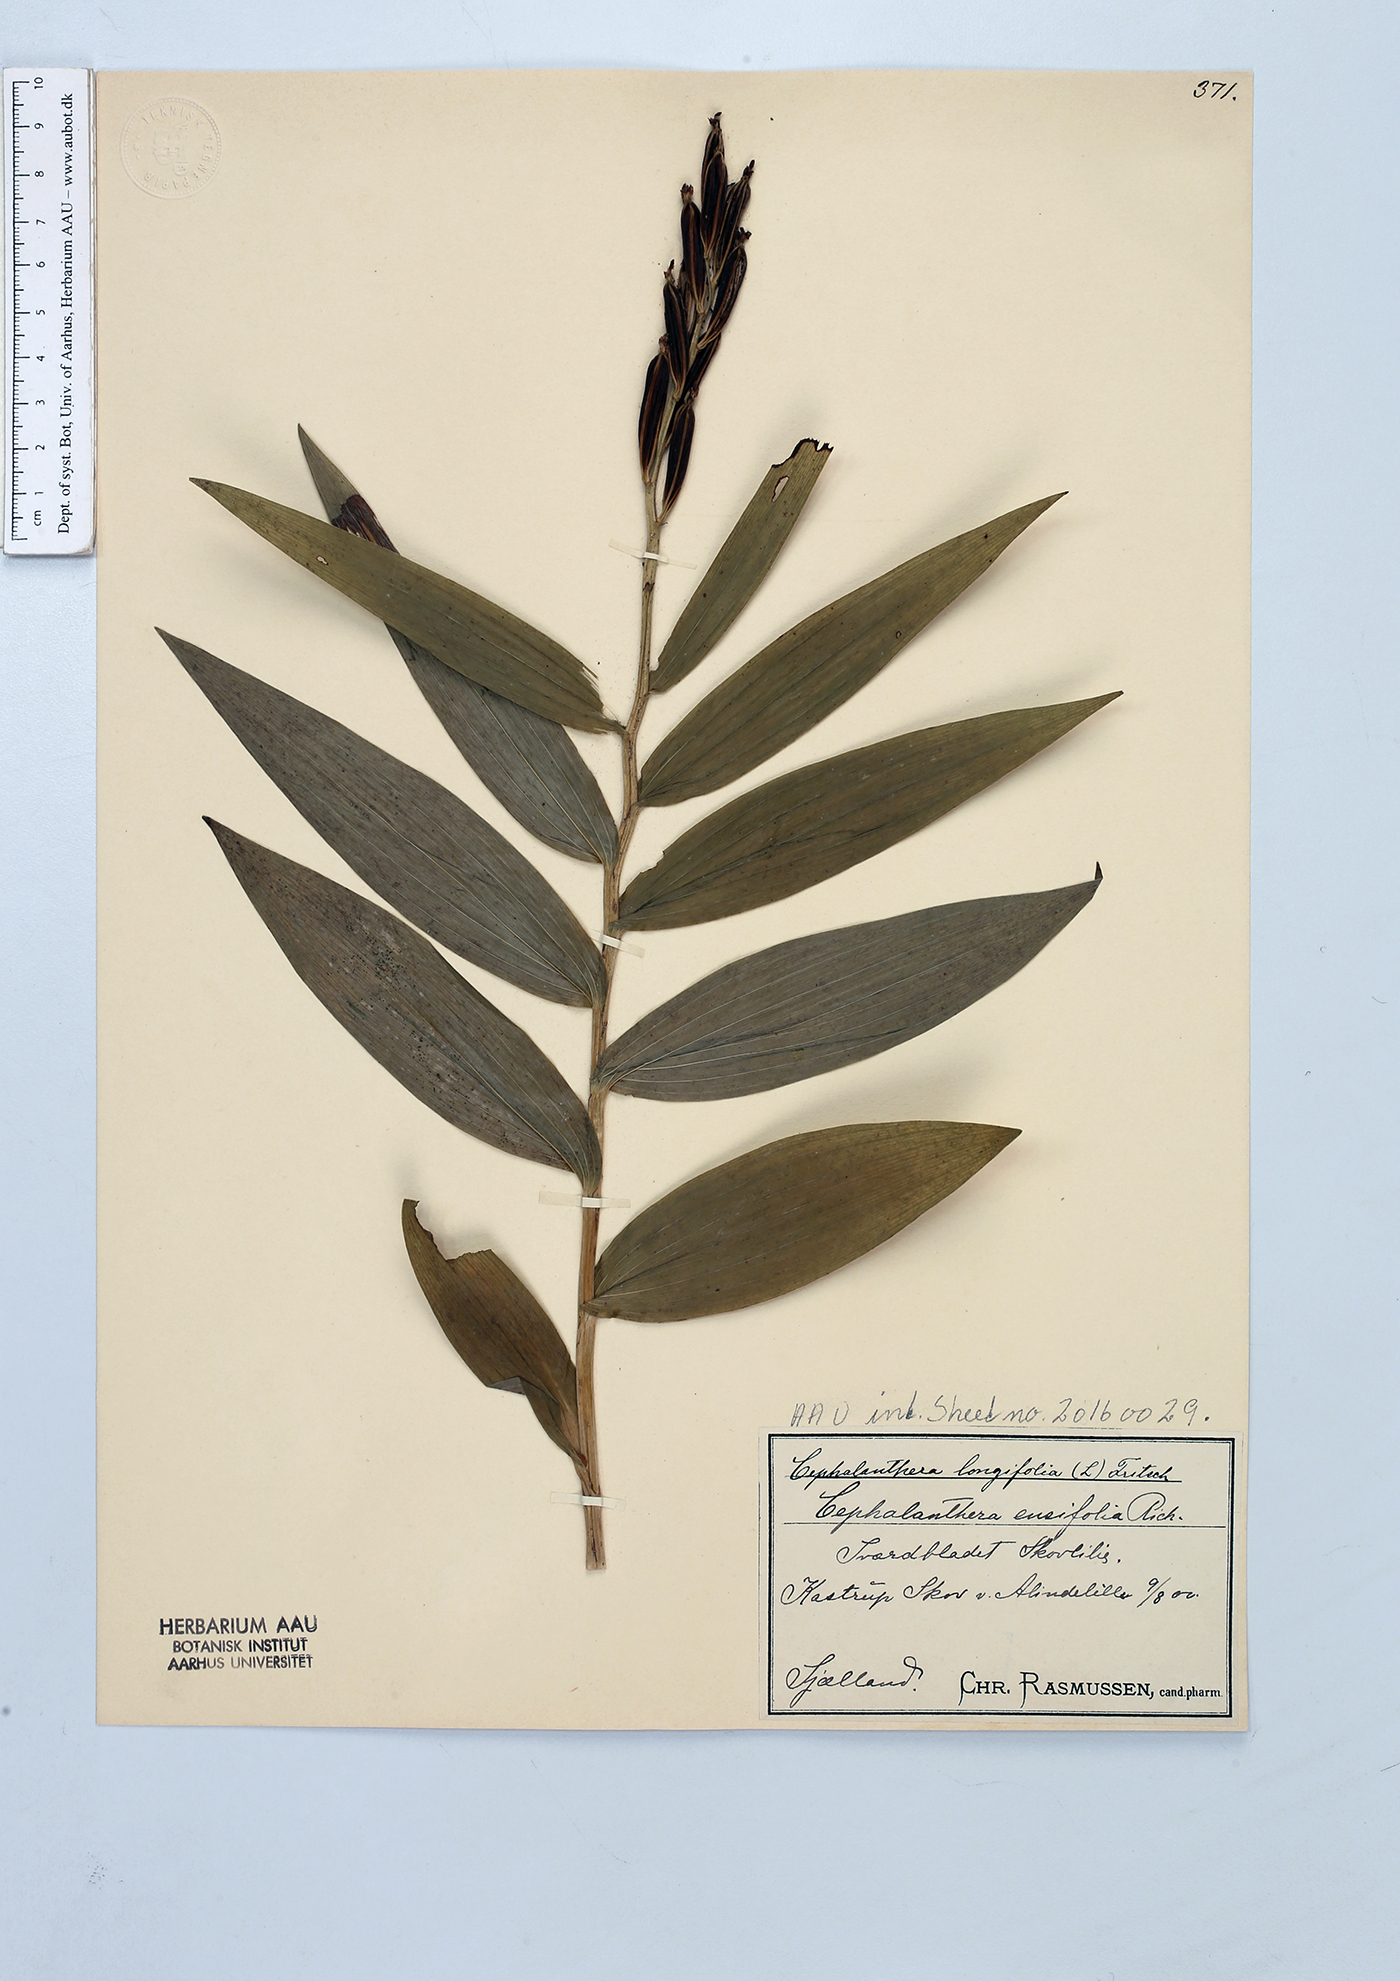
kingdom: Plantae
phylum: Tracheophyta
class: Liliopsida
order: Asparagales
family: Orchidaceae
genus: Cephalanthera
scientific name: Cephalanthera longifolia
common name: Narrow-leaved helleborine
